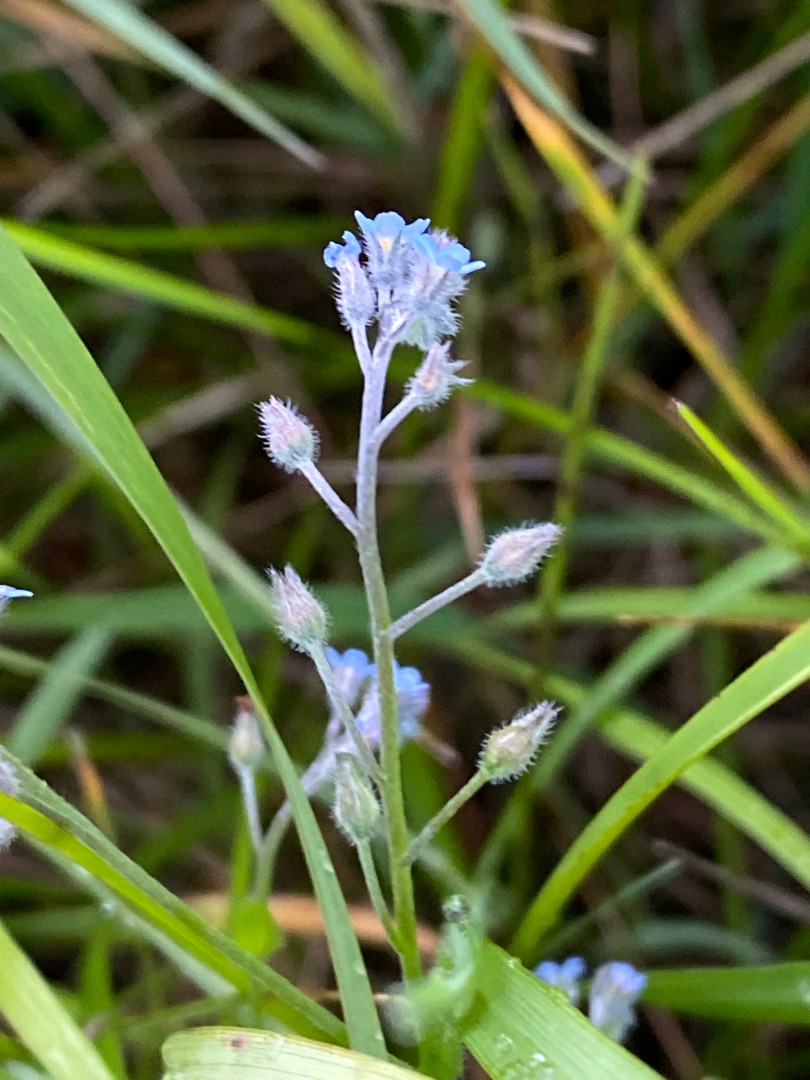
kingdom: Plantae
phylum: Tracheophyta
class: Magnoliopsida
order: Boraginales
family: Boraginaceae
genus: Myosotis
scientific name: Myosotis arvensis
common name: Mark-forglemmigej
